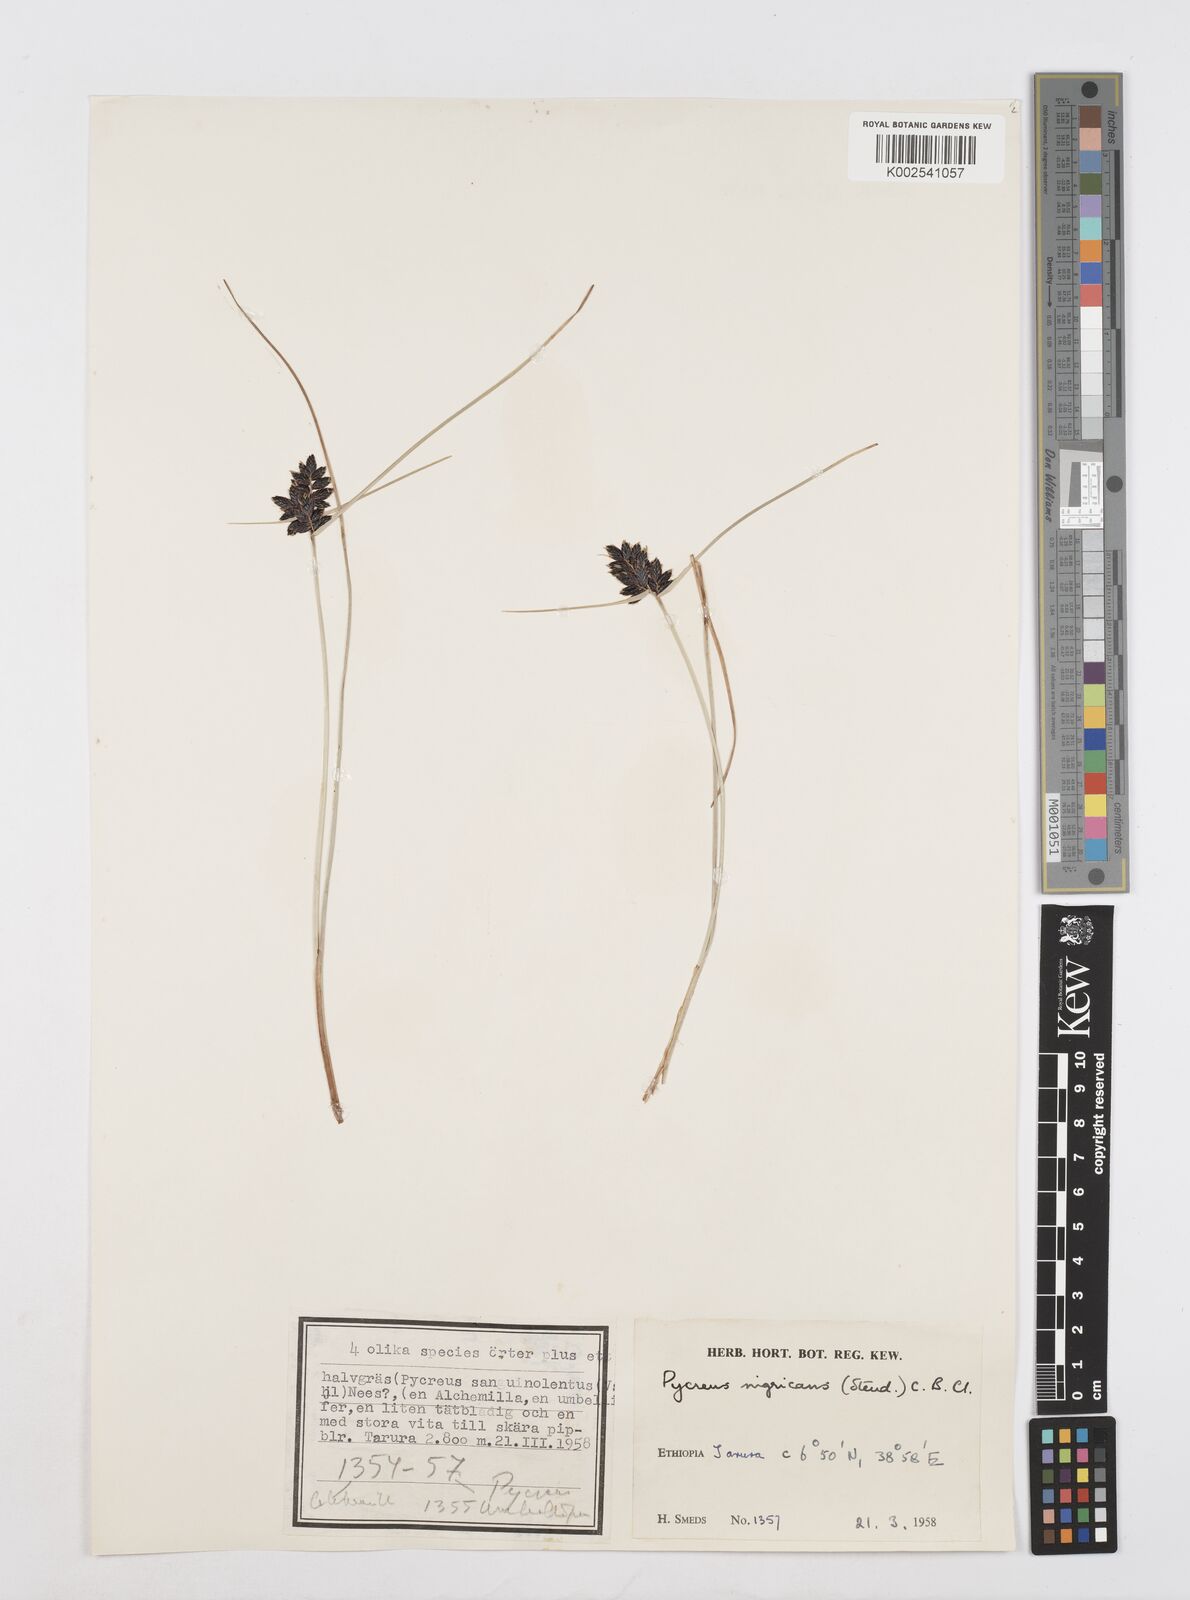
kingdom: Plantae
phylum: Tracheophyta
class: Liliopsida
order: Poales
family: Cyperaceae
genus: Cyperus
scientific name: Cyperus nigricans
